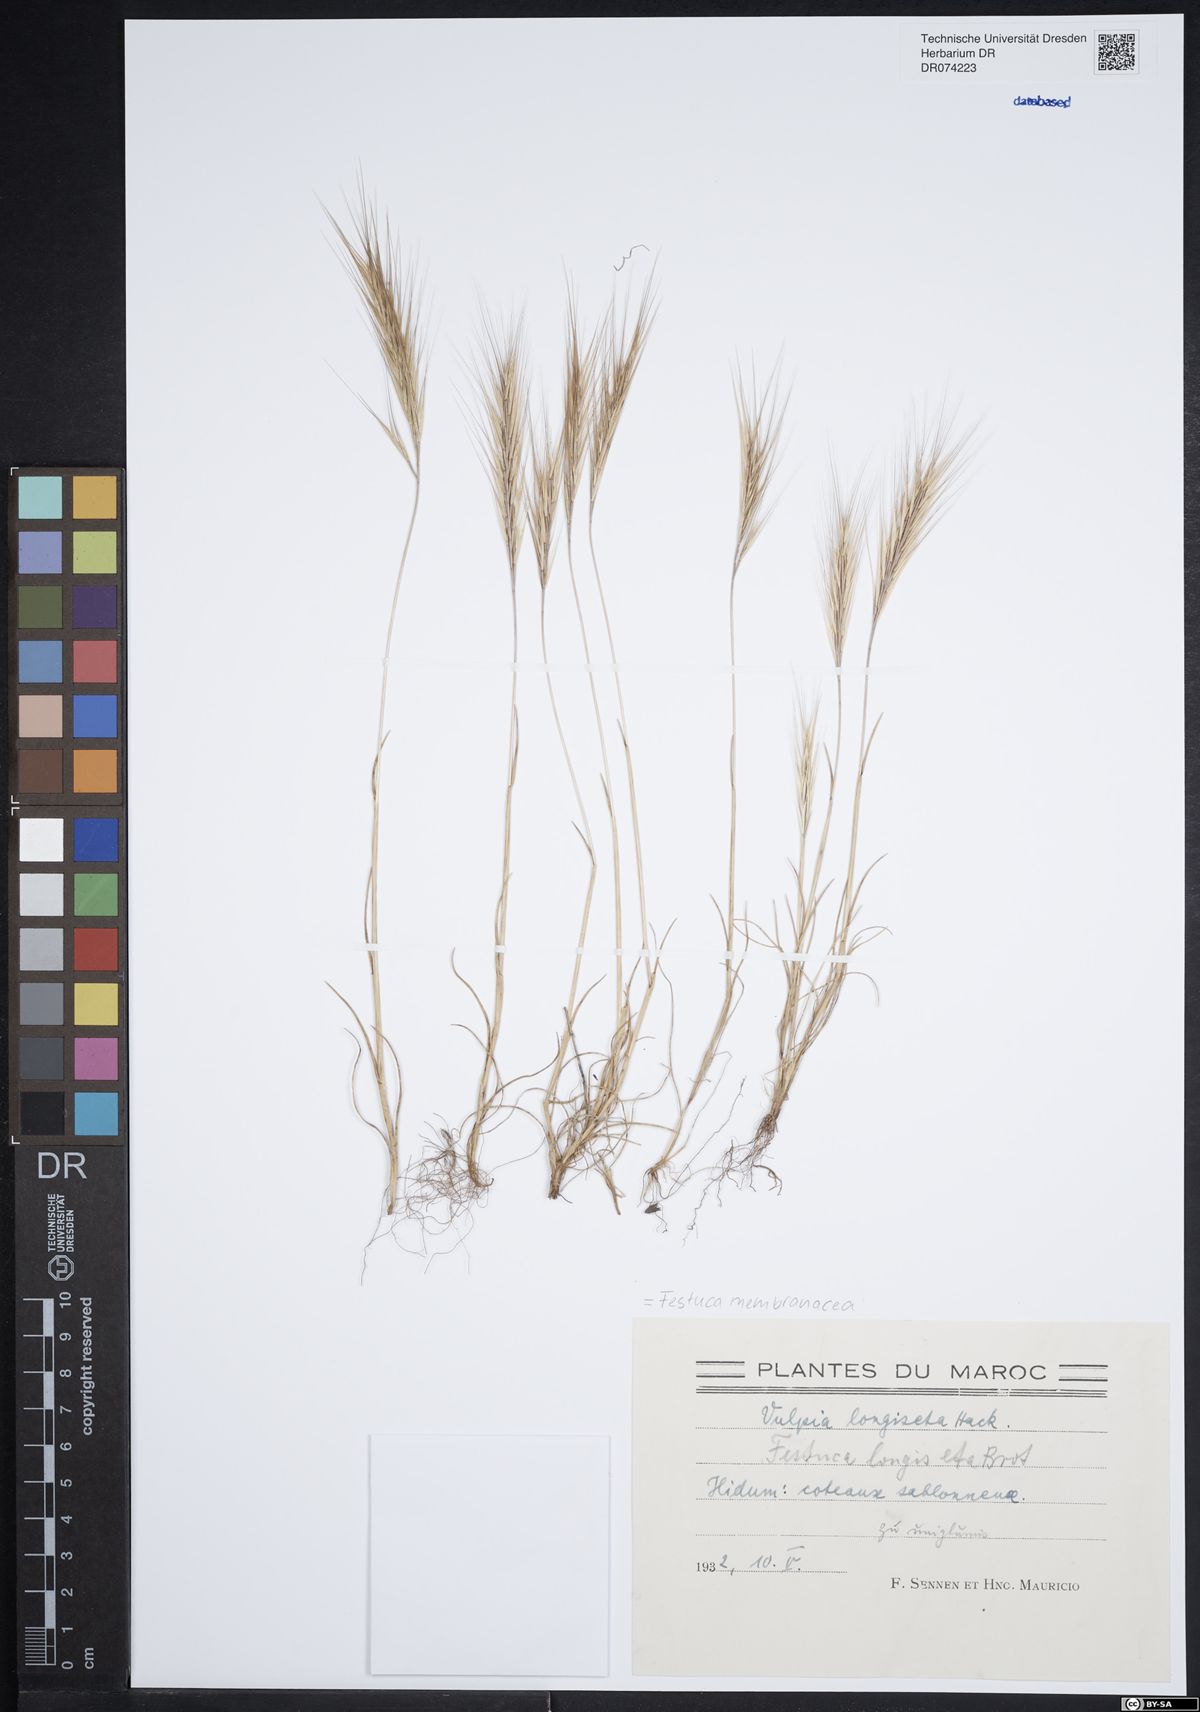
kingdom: Plantae
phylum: Tracheophyta
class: Liliopsida
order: Poales
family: Poaceae
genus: Festuca
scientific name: Festuca membranacea
